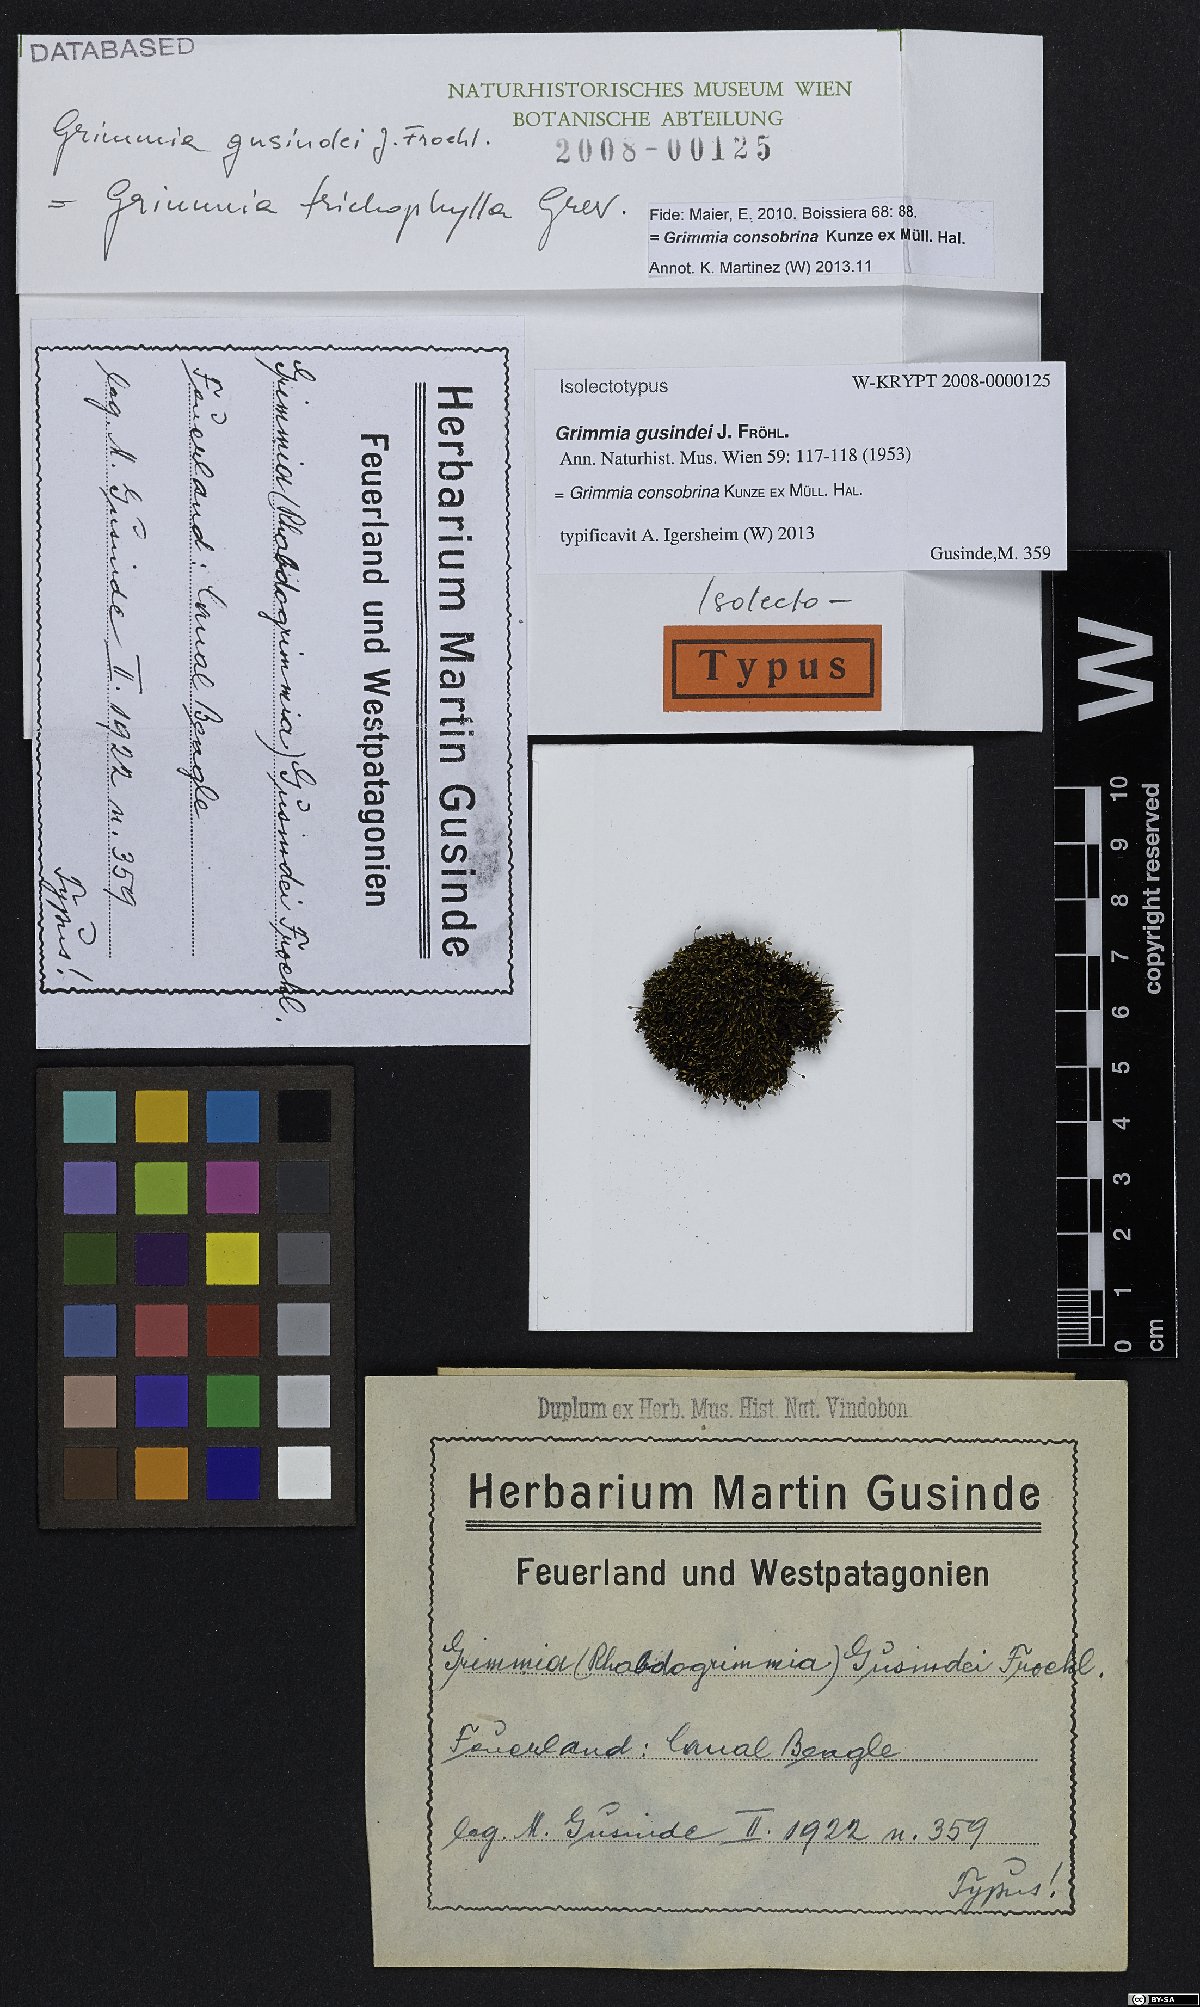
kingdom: Plantae
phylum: Bryophyta
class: Bryopsida
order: Grimmiales
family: Grimmiaceae
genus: Grimmia
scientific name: Grimmia consobrina
